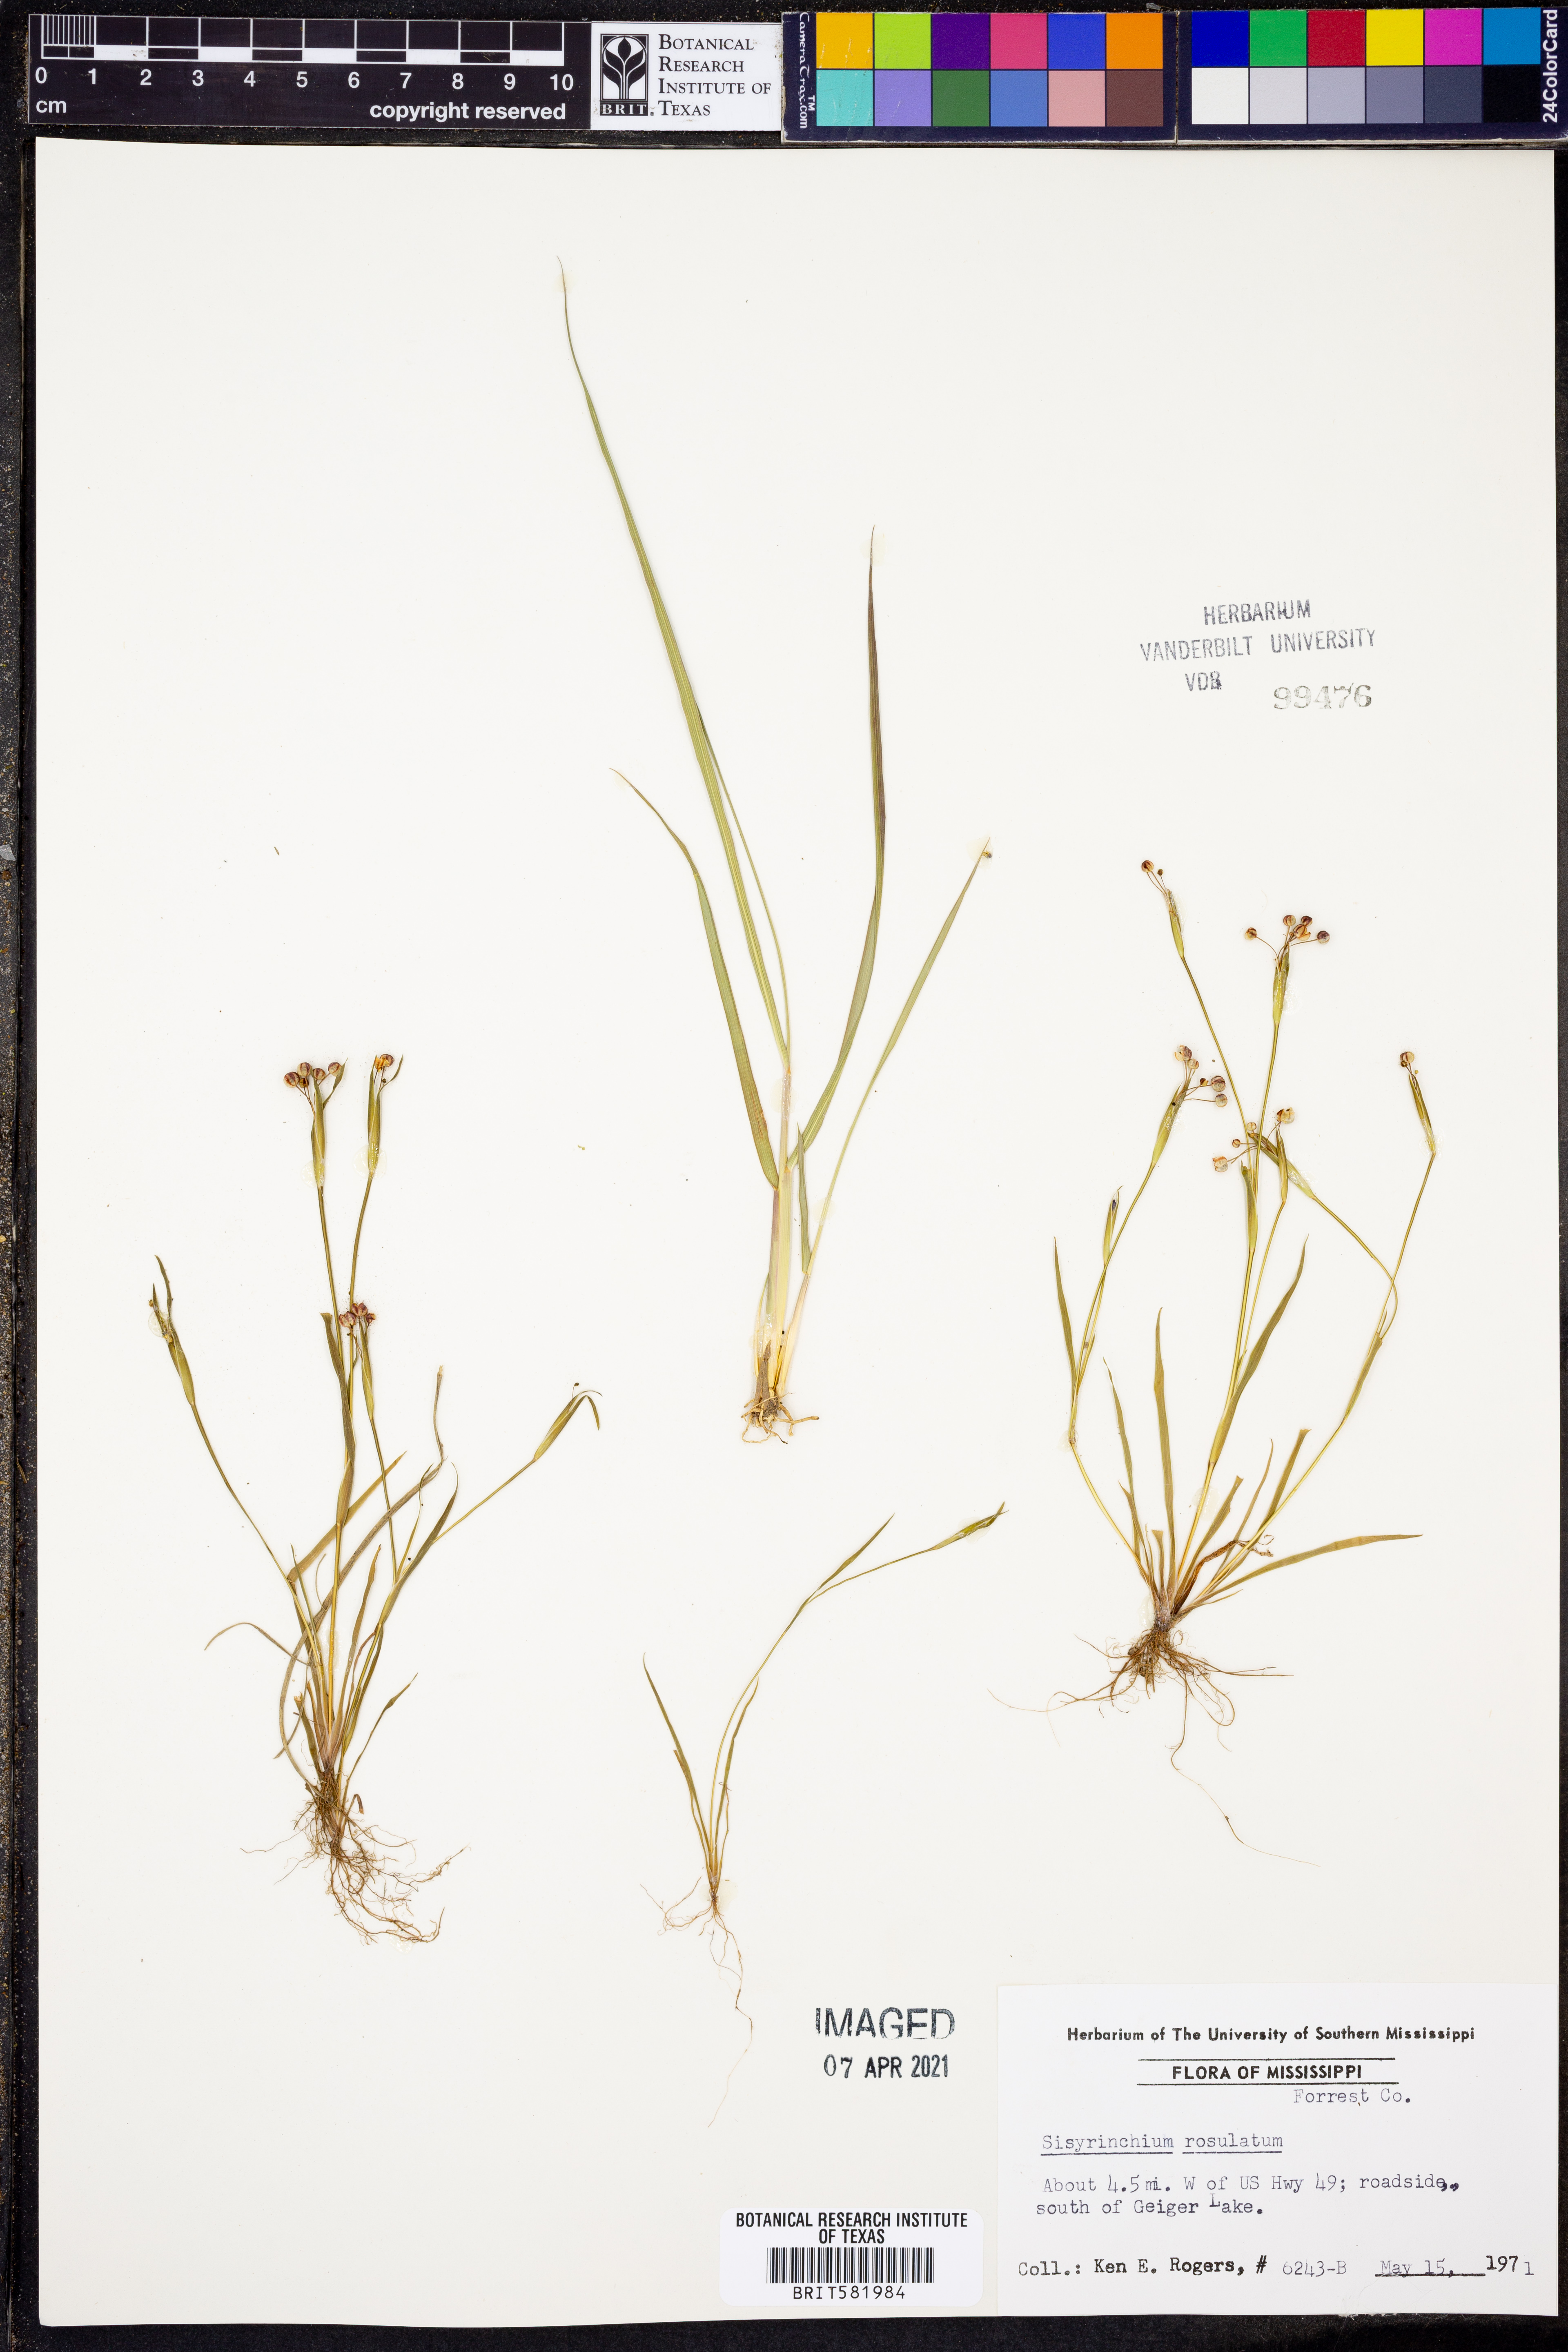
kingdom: Plantae
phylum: Tracheophyta
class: Liliopsida
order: Asparagales
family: Iridaceae
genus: Sisyrinchium
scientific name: Sisyrinchium rosulatum
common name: Annual blue-eyed grass
